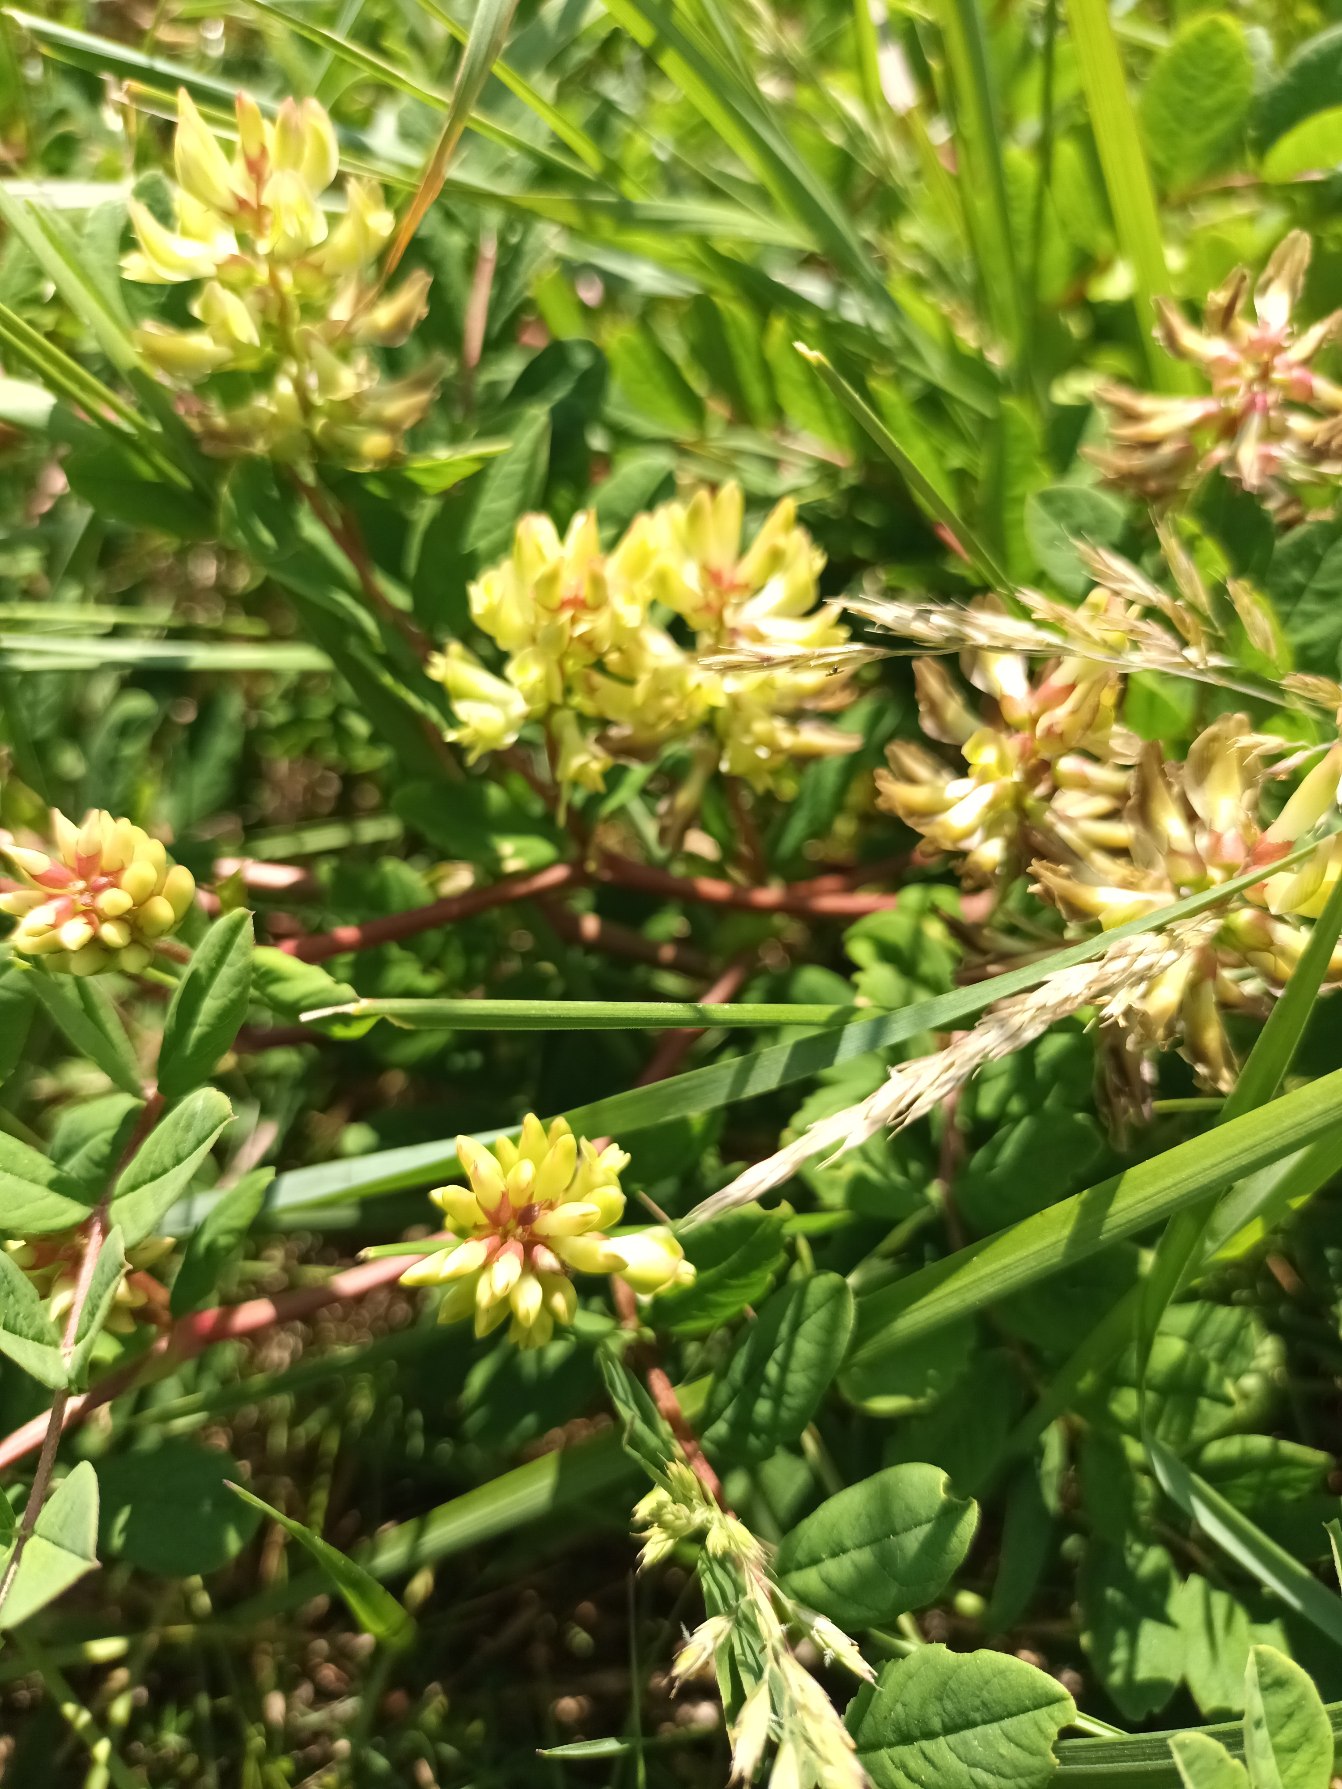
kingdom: Plantae
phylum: Tracheophyta
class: Magnoliopsida
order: Fabales
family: Fabaceae
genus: Astragalus
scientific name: Astragalus glycyphyllos
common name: Sød astragel
